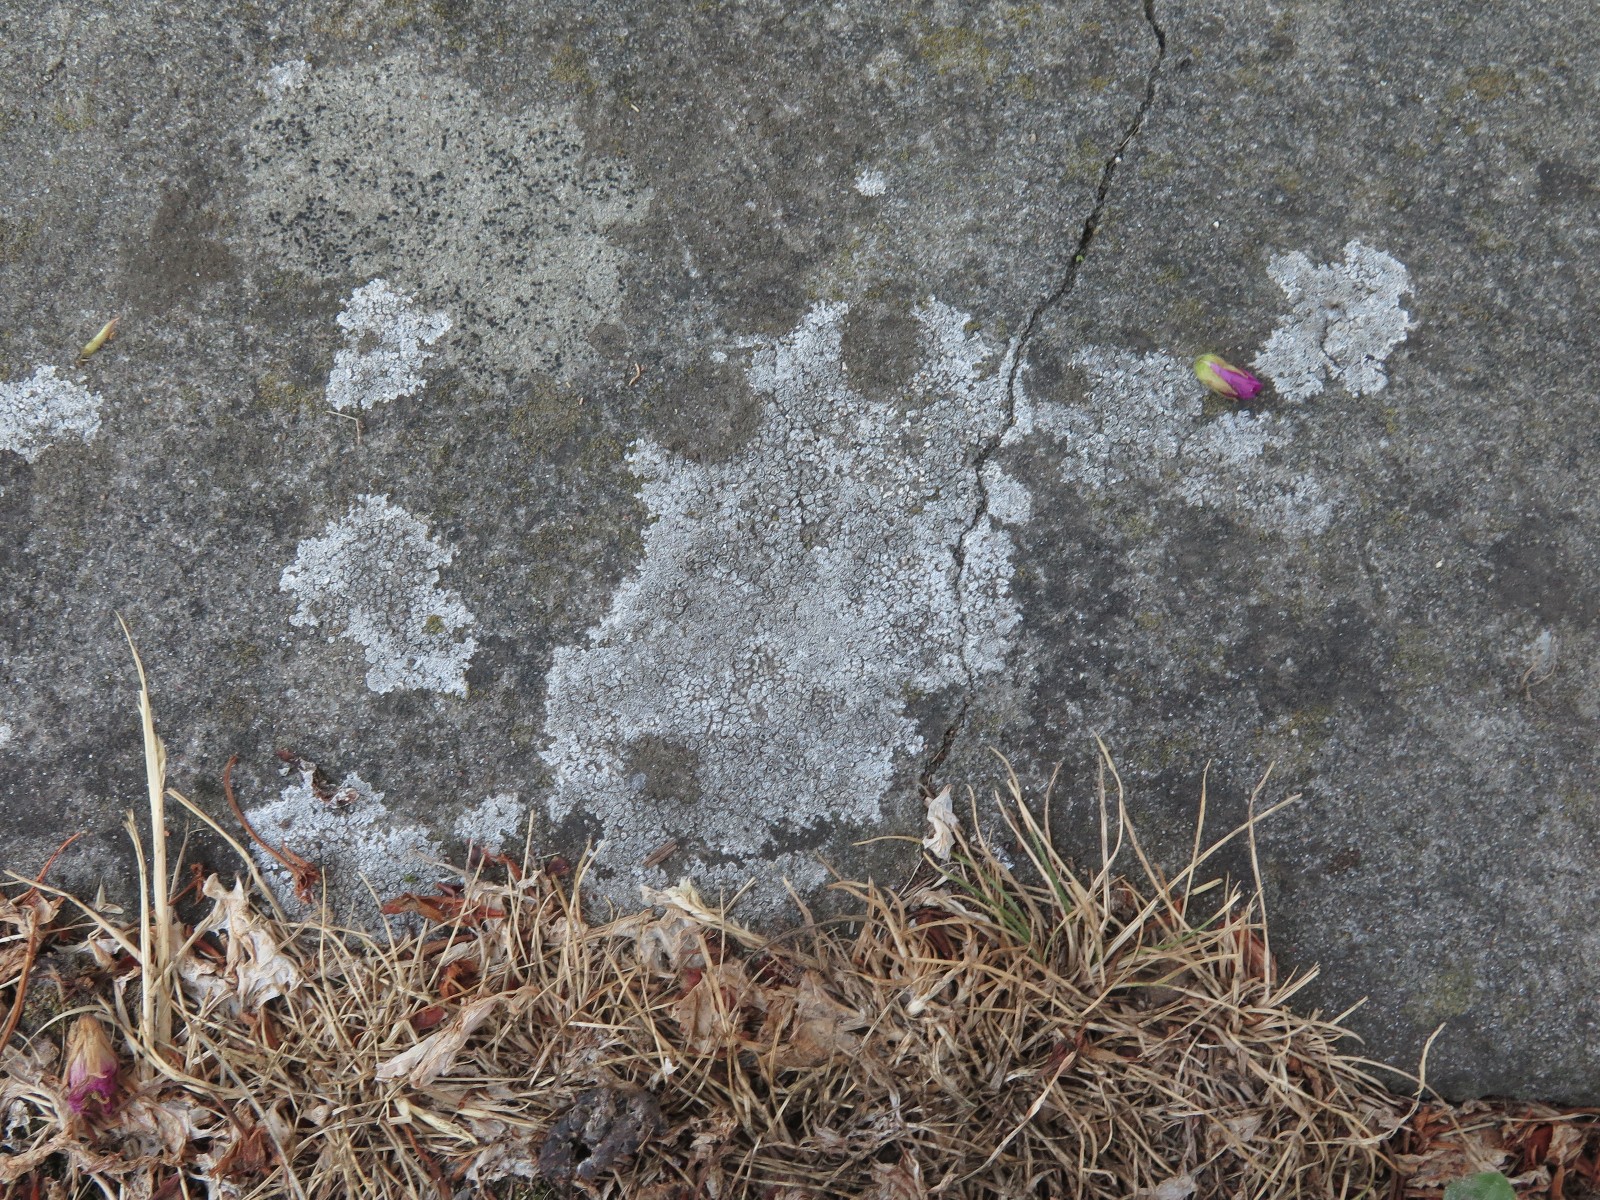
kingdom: Fungi
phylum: Ascomycota
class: Lecanoromycetes
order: Pertusariales
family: Megasporaceae
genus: Circinaria
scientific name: Circinaria contorta
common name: indviklet hulskivelav
